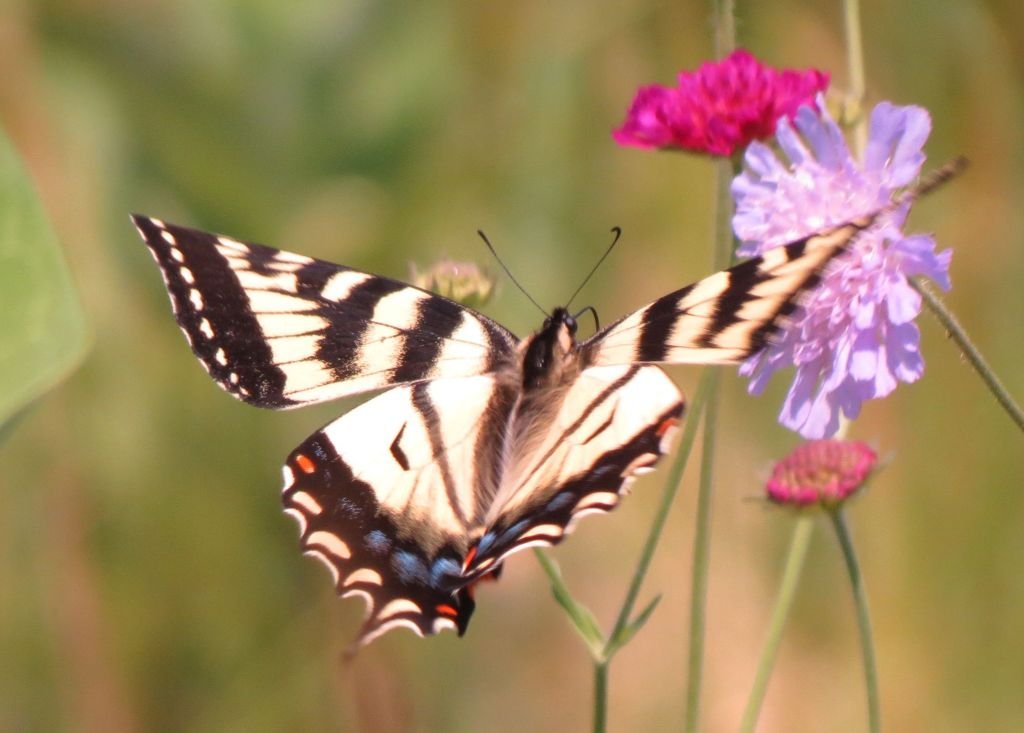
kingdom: Animalia
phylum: Arthropoda
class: Insecta
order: Lepidoptera
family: Papilionidae
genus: Pterourus
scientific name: Pterourus canadensis
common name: Canadian Tiger Swallowtail
